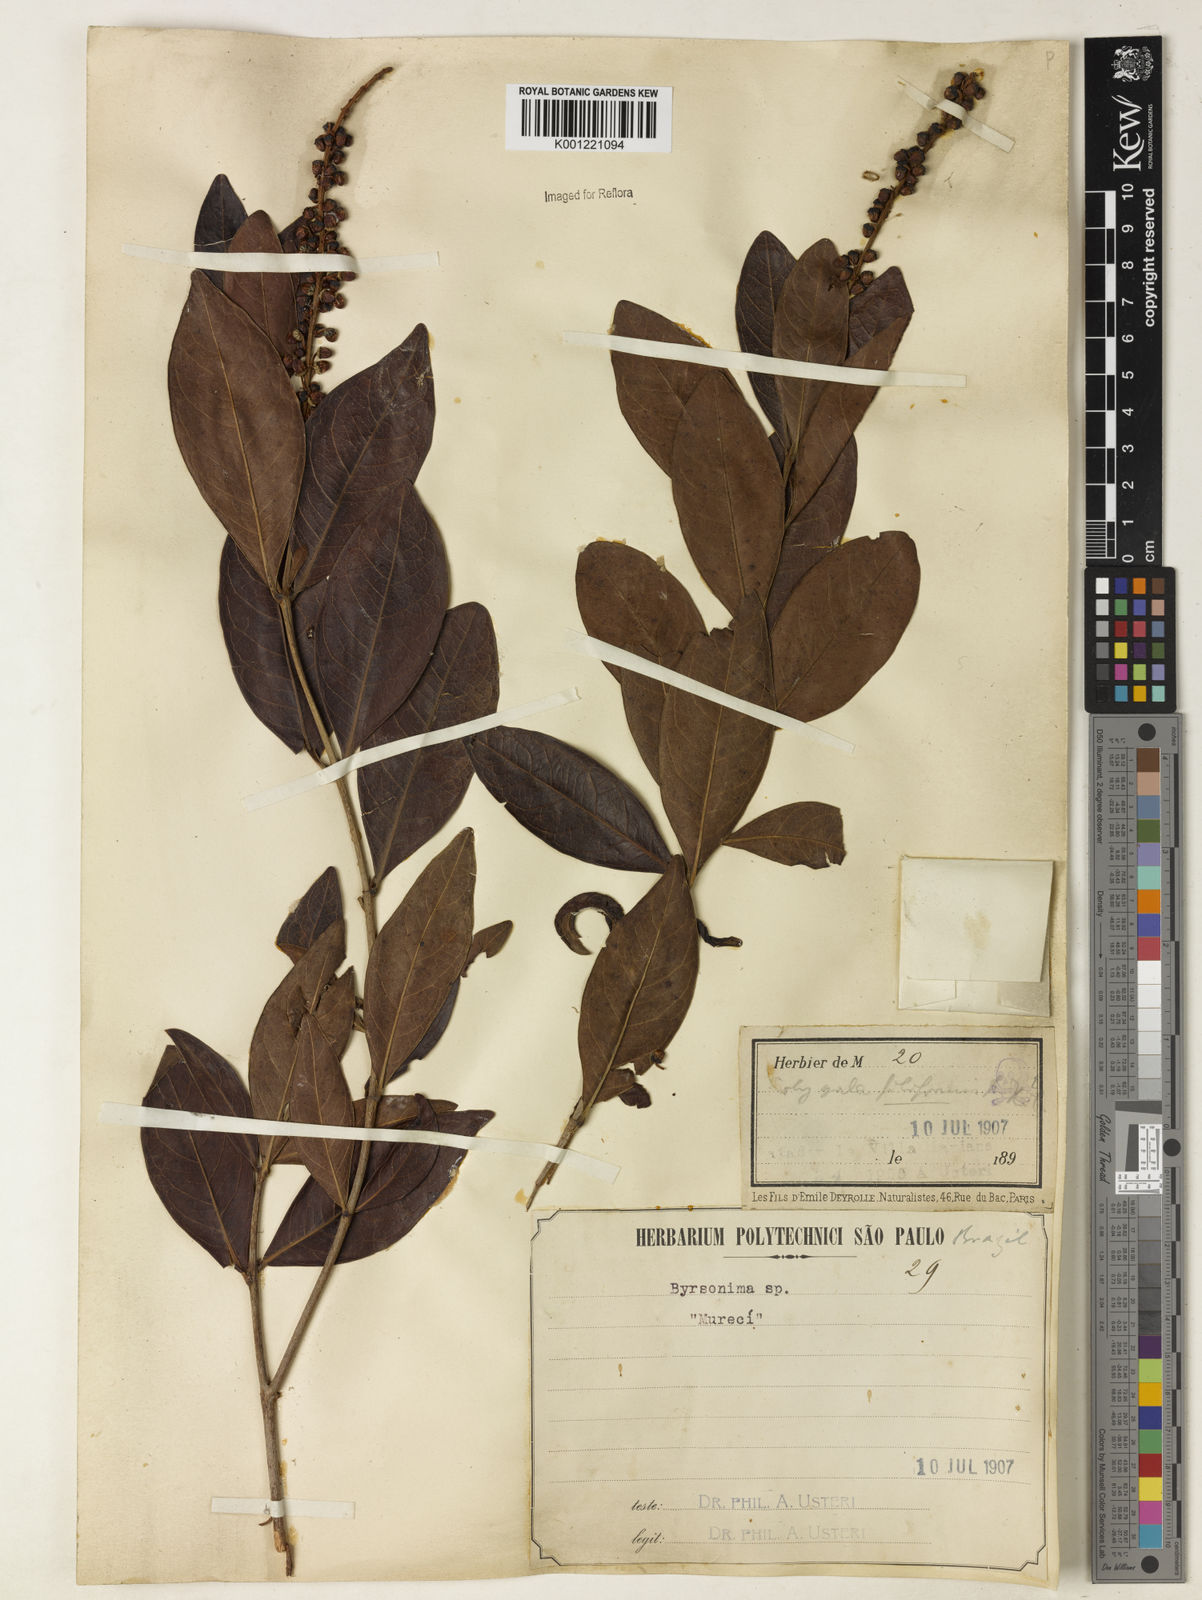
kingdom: Plantae
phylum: Tracheophyta
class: Magnoliopsida
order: Malpighiales
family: Malpighiaceae
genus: Byrsonima
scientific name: Byrsonima intermedia
